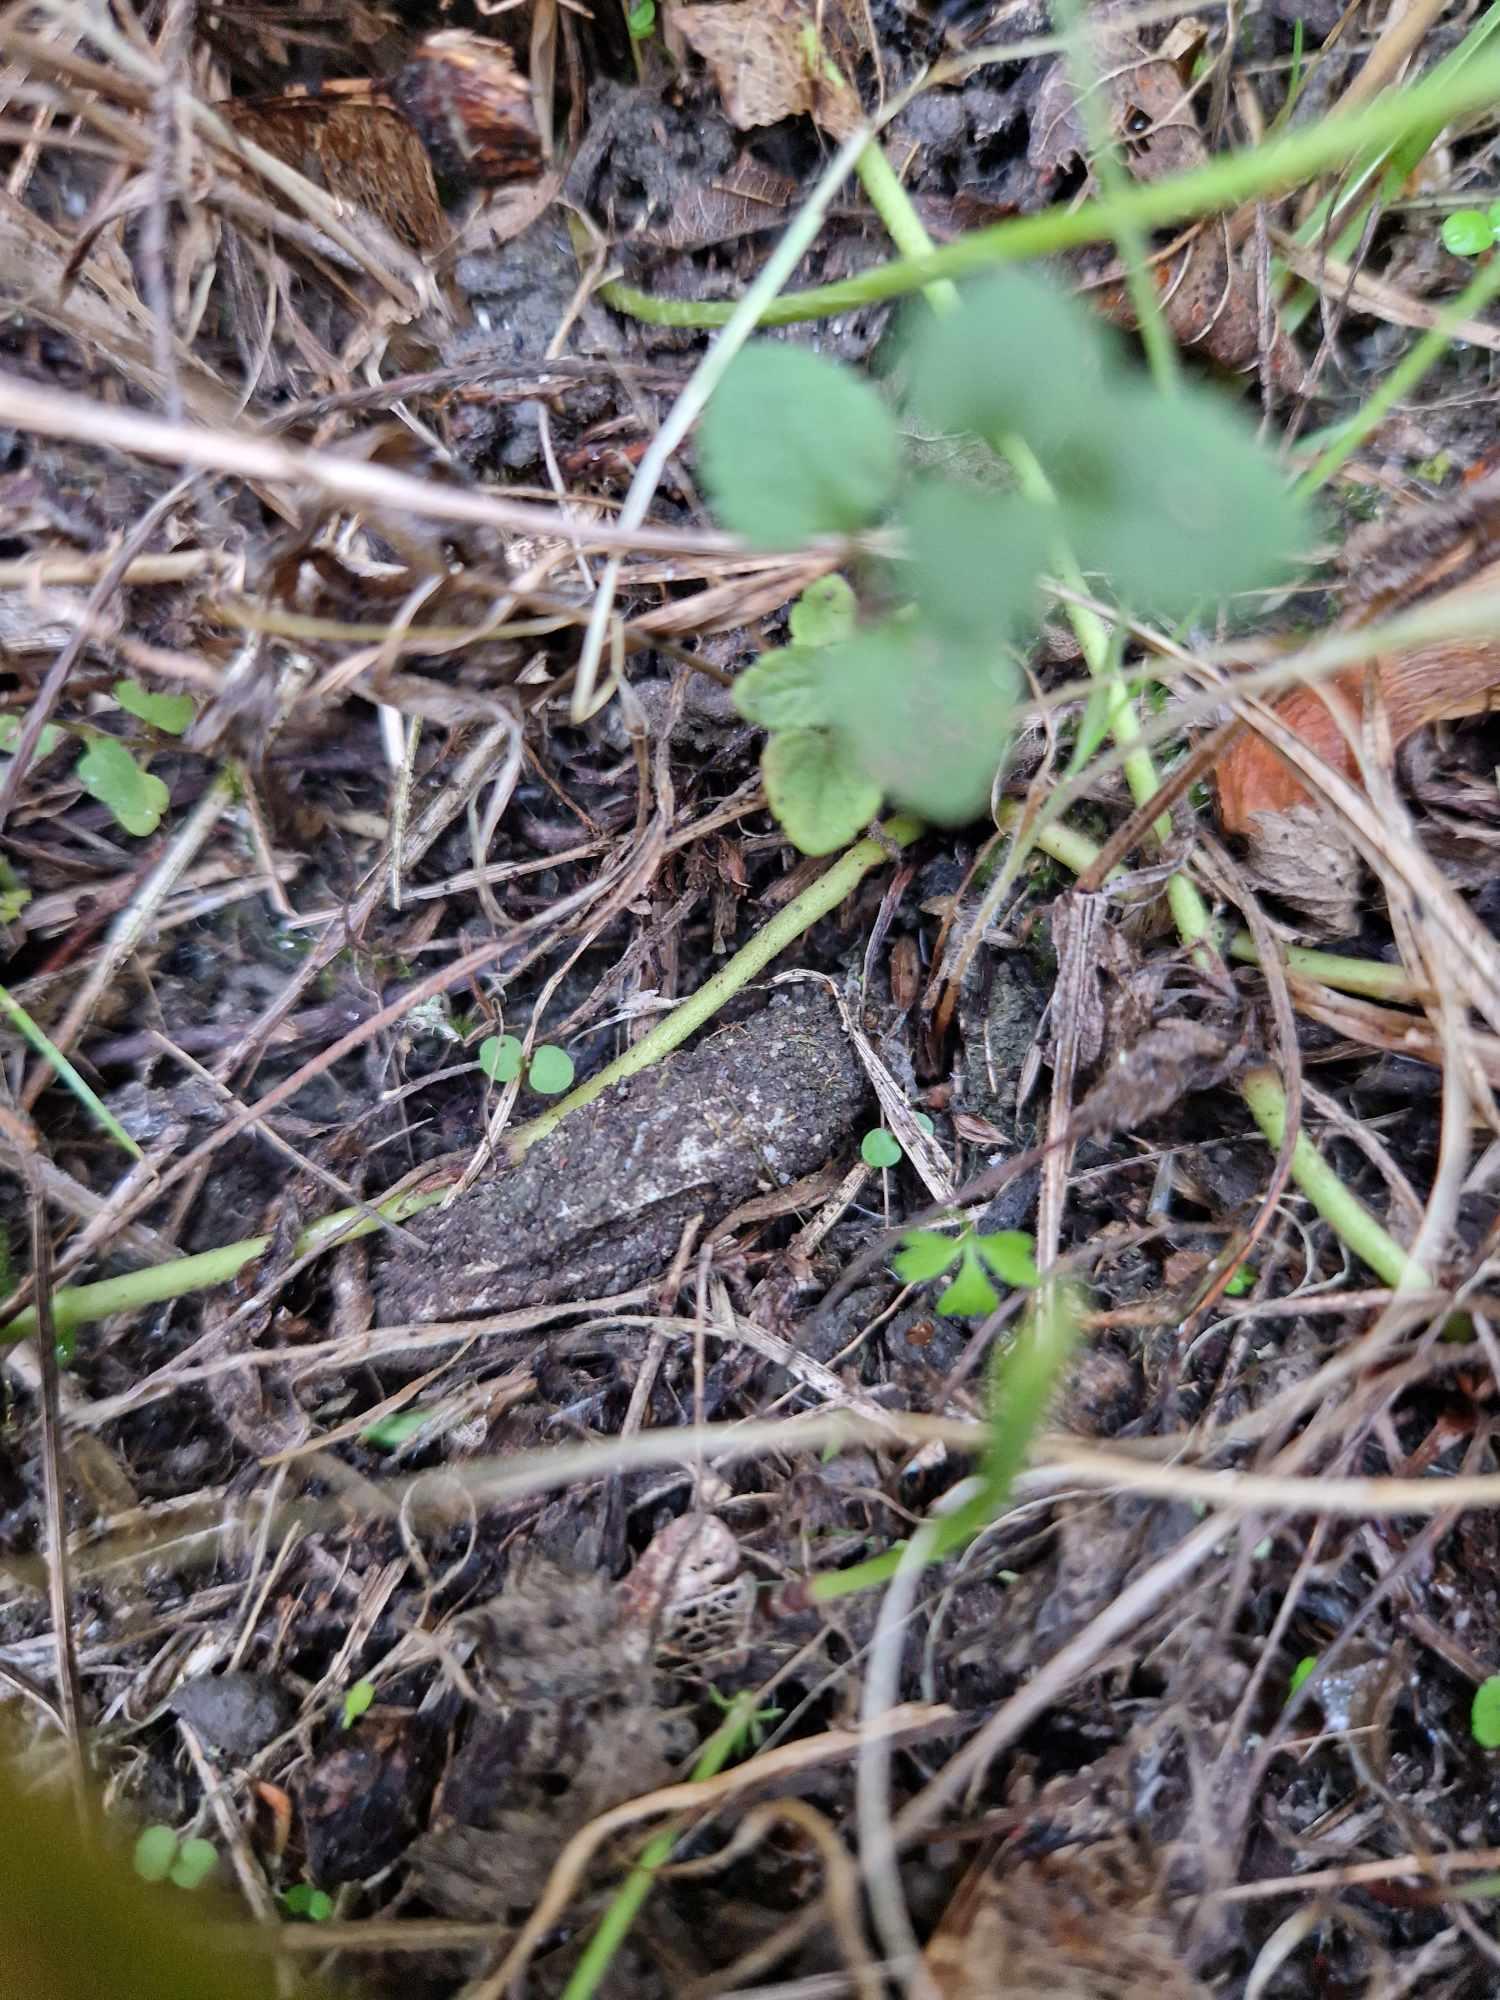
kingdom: Animalia
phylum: Arthropoda
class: Arachnida
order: Araneae
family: Atypidae
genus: Atypus
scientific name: Atypus affinis
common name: Nordlig fugleedderkop
